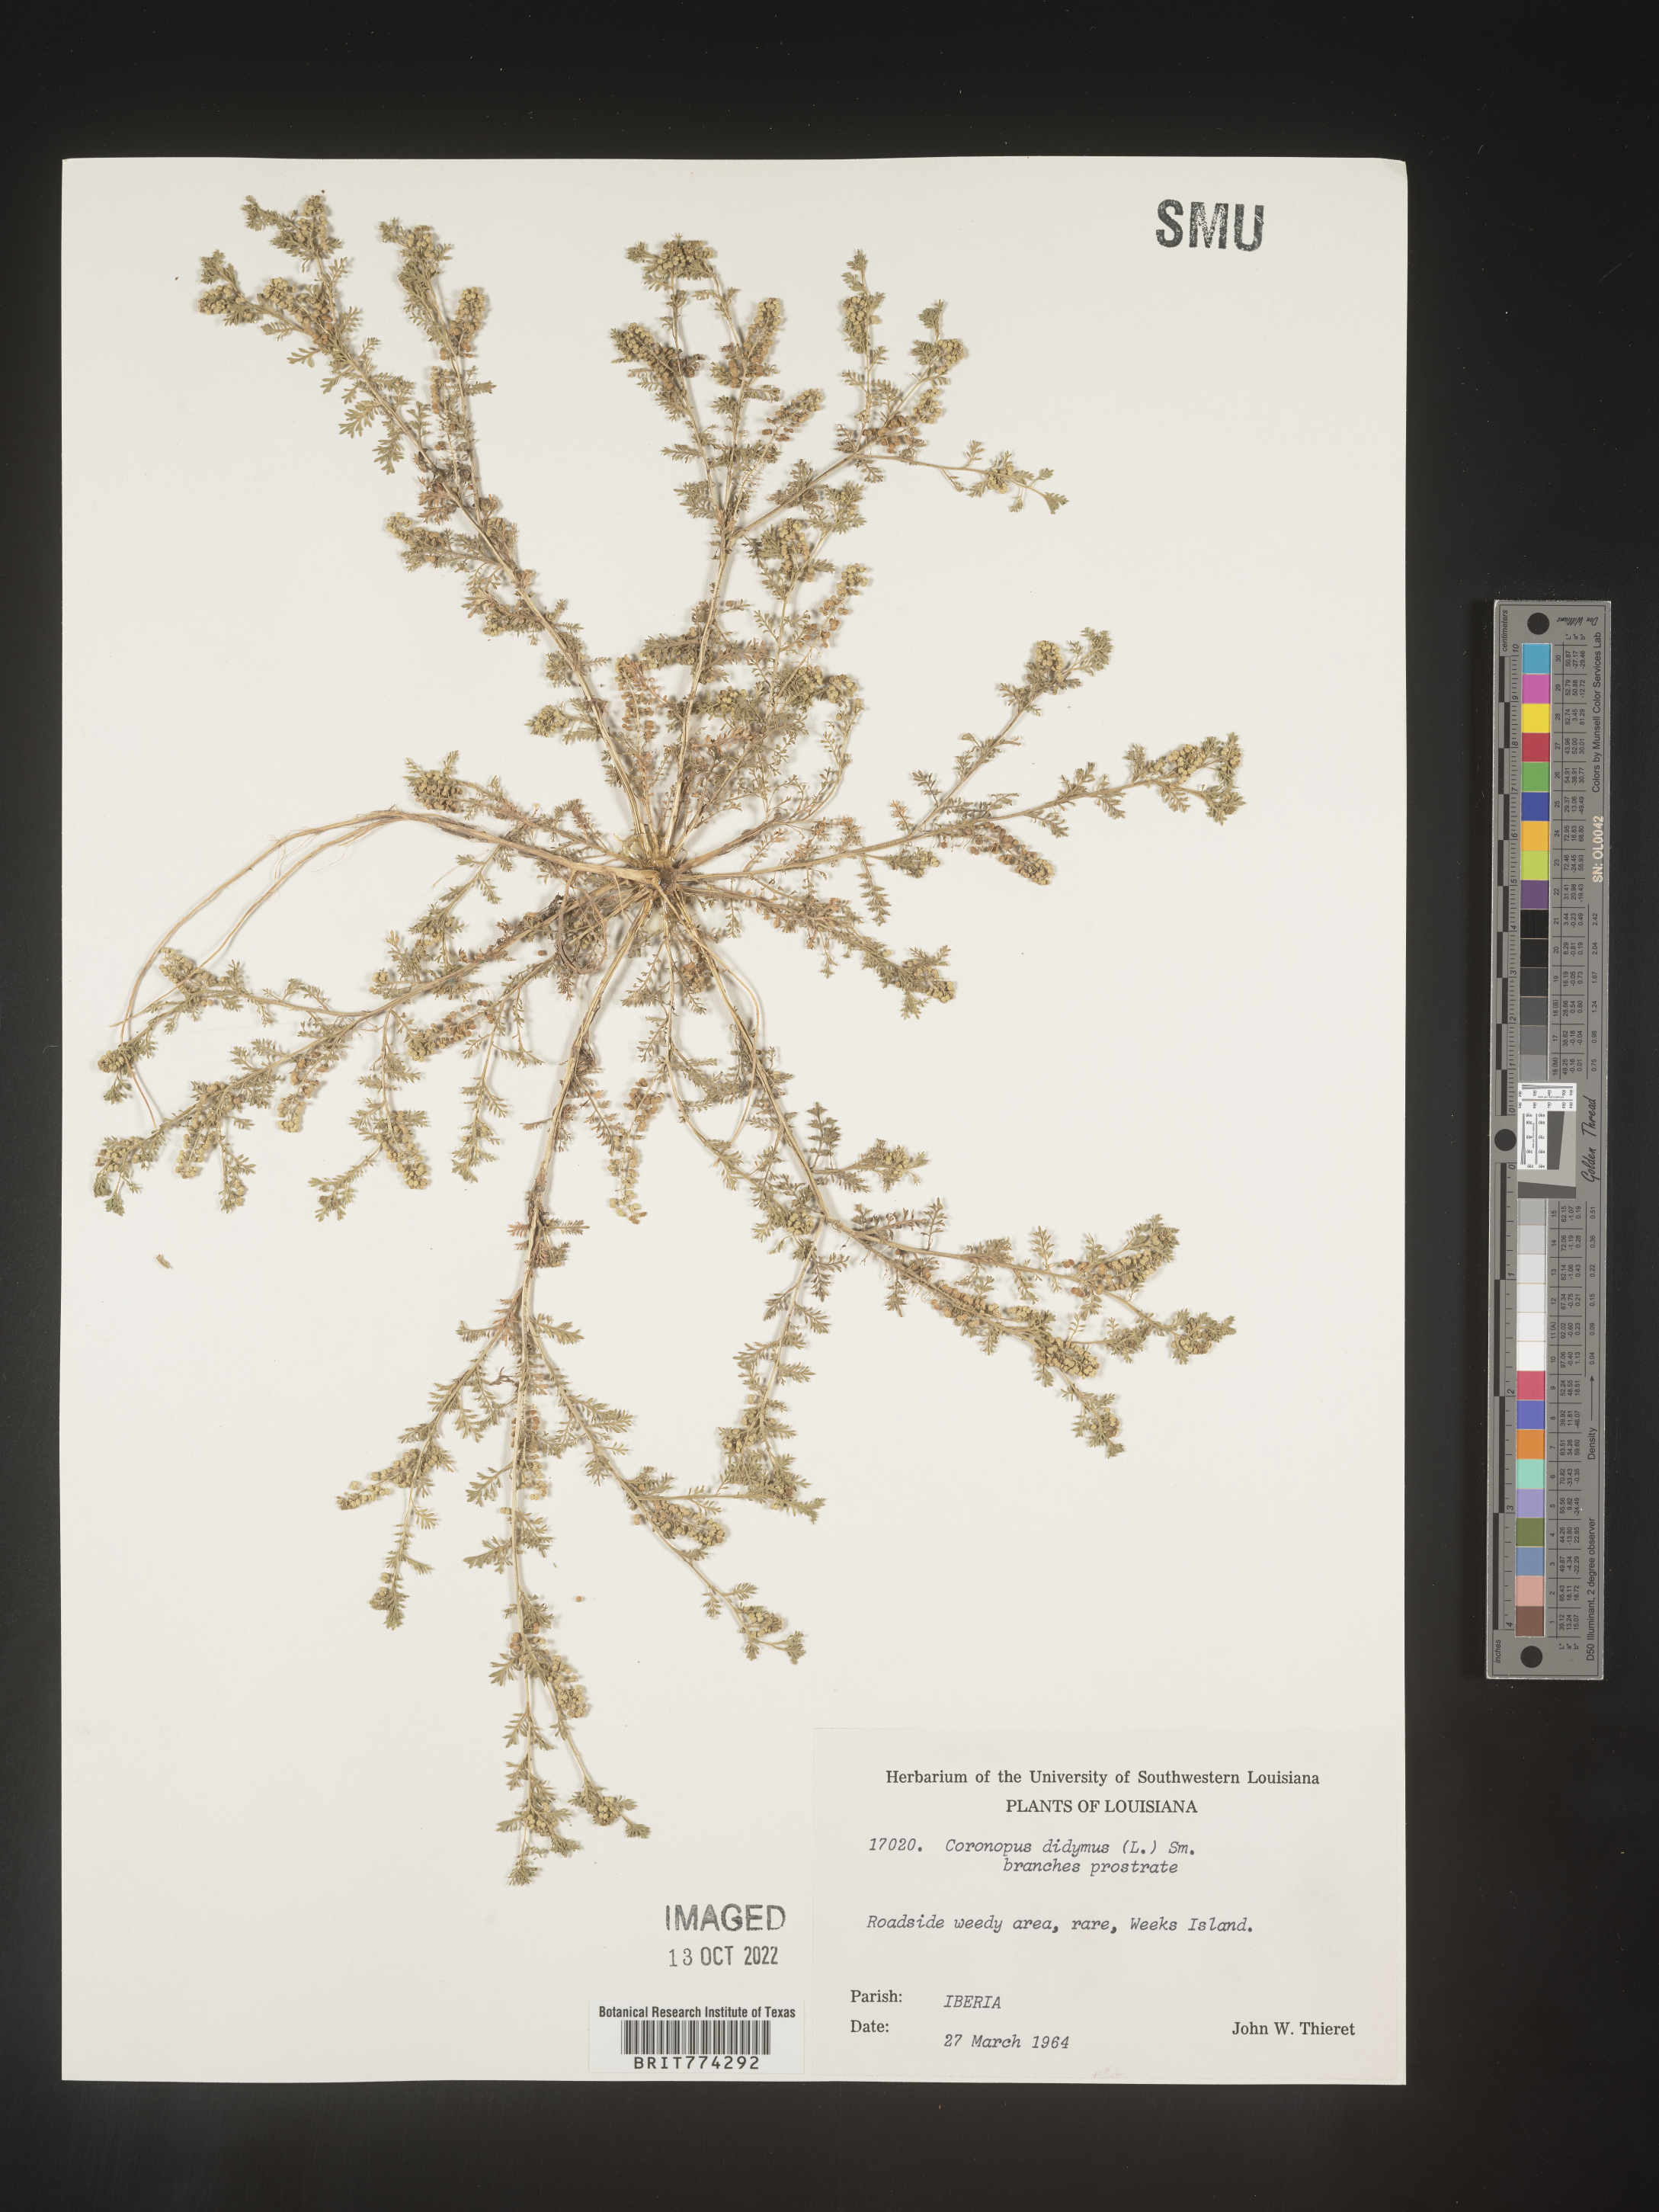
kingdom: Plantae
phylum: Tracheophyta
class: Magnoliopsida
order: Brassicales
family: Brassicaceae
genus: Coronopus
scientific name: Coronopus
